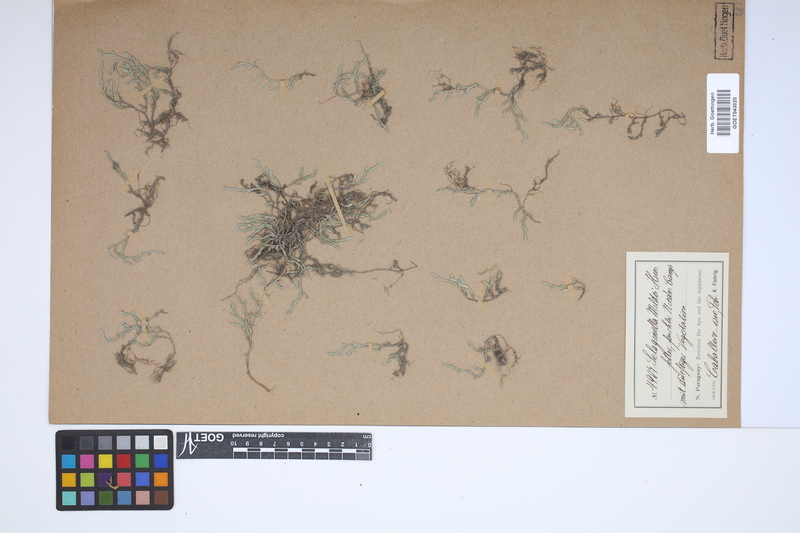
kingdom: Plantae
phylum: Tracheophyta
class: Lycopodiopsida
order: Selaginellales
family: Selaginellaceae
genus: Selaginella
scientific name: Selaginella sellowii
